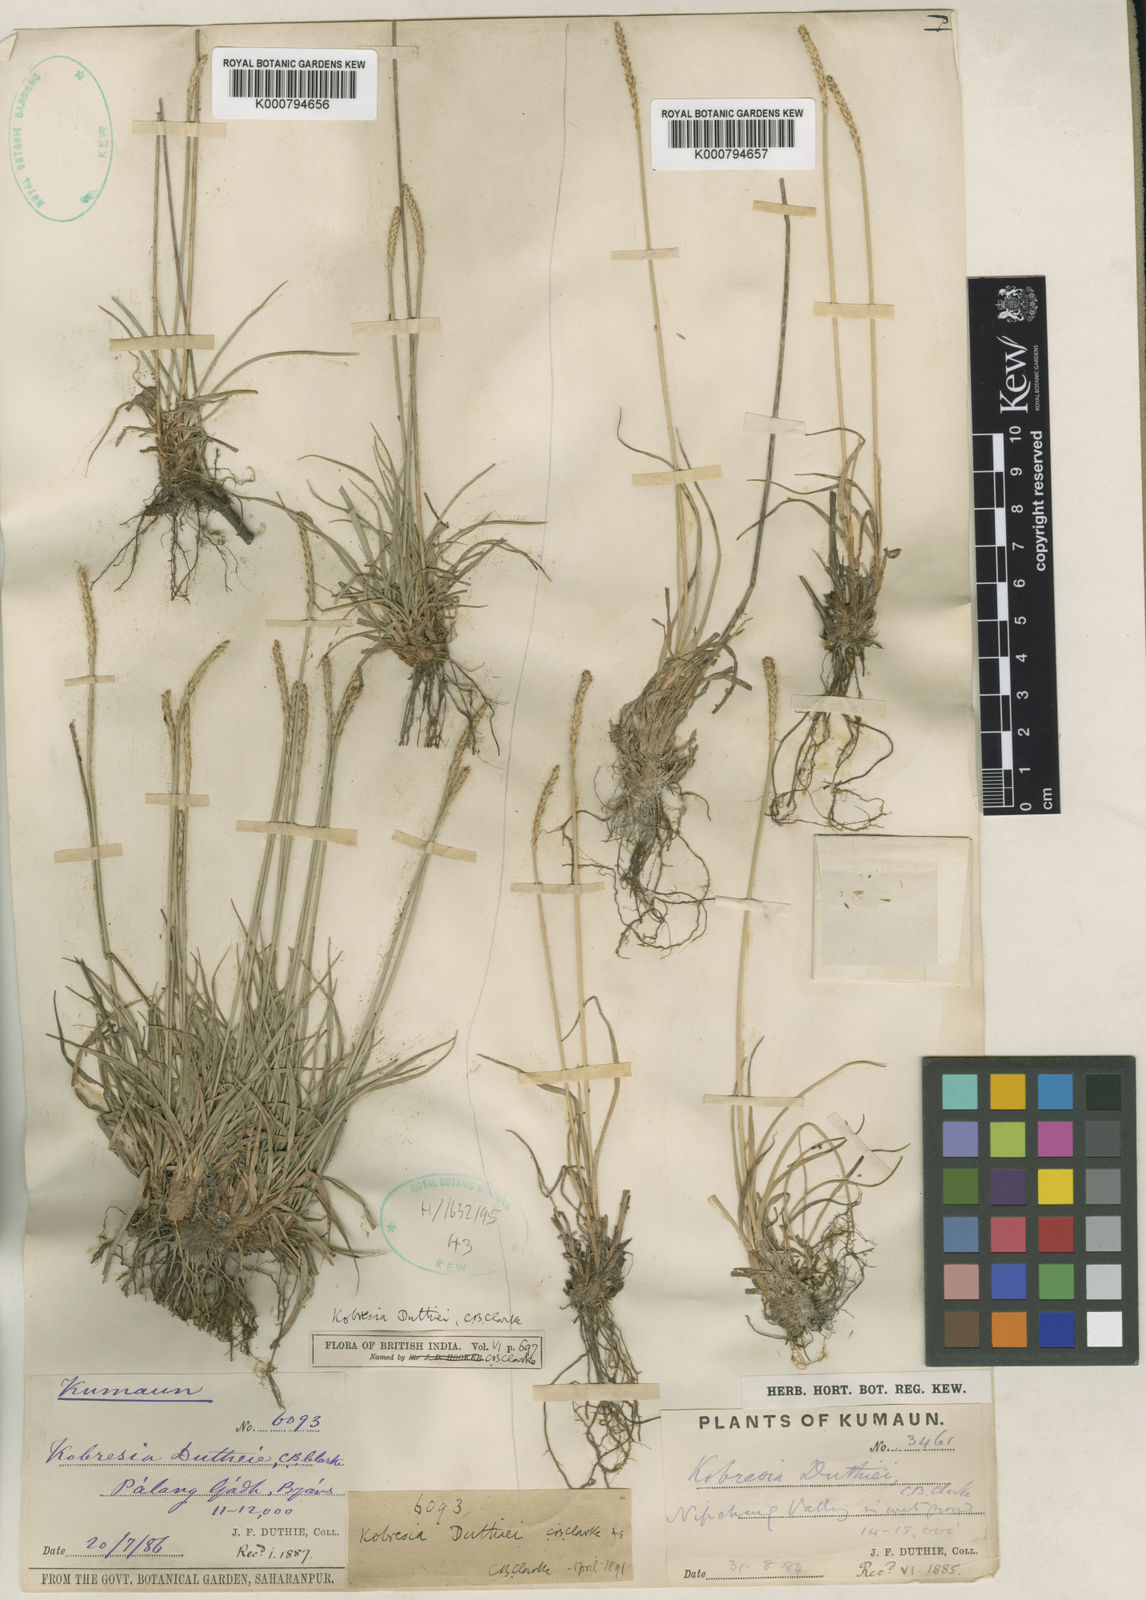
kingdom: Plantae
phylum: Tracheophyta
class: Liliopsida
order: Poales
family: Cyperaceae
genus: Carex
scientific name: Carex clavispica
